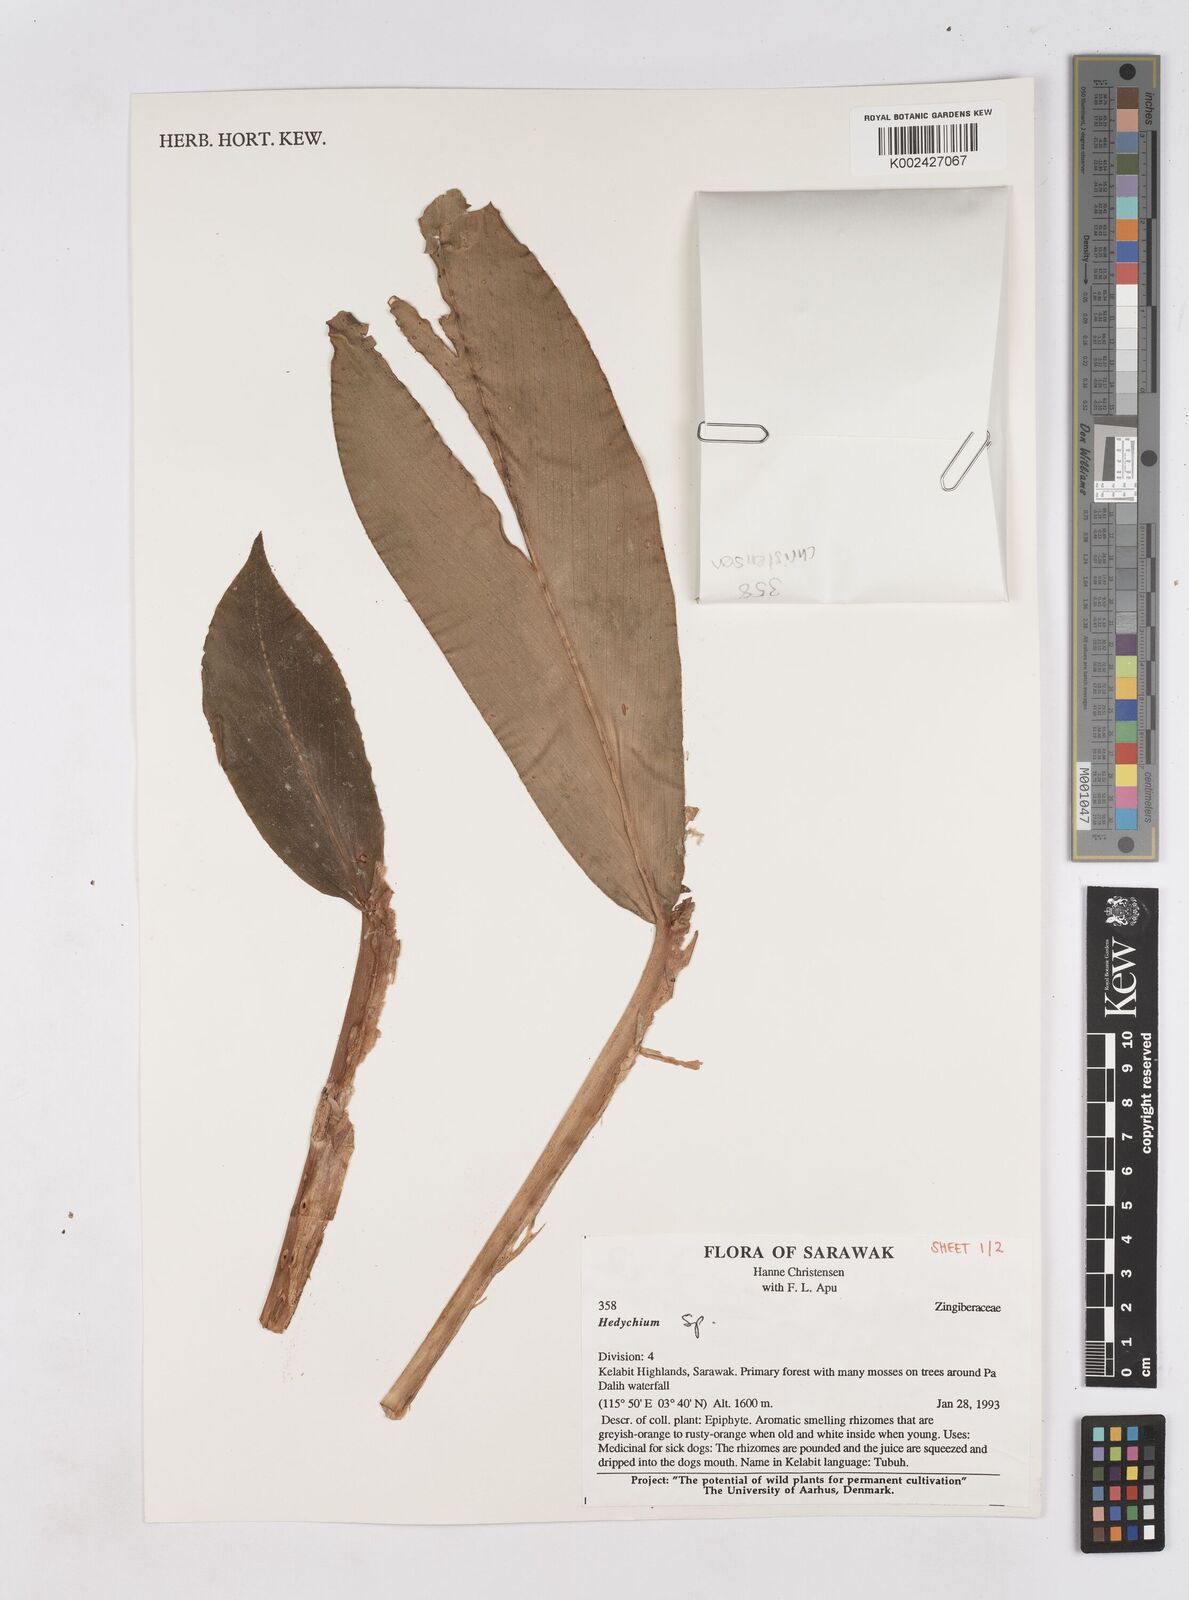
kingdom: Plantae
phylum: Tracheophyta
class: Liliopsida
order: Zingiberales
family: Zingiberaceae
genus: Hedychium
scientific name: Hedychium
